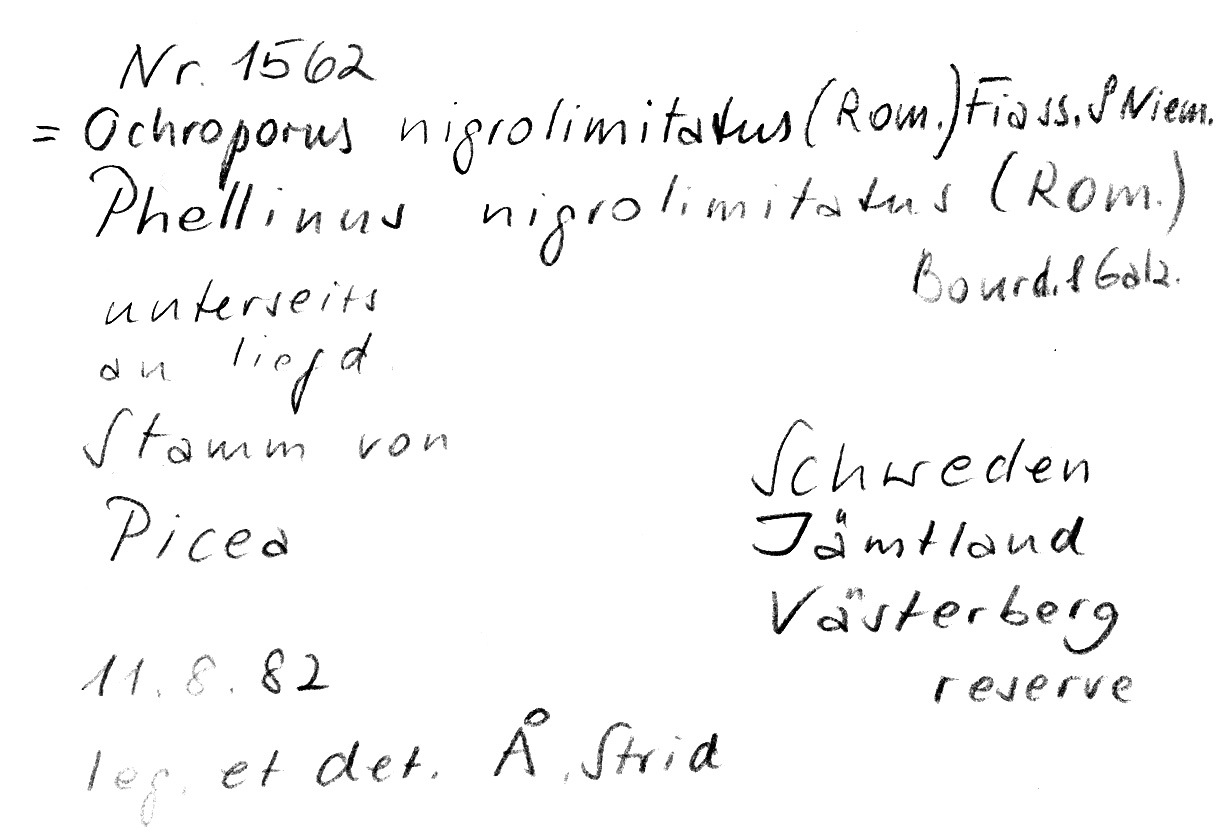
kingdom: Fungi
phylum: Basidiomycota
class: Agaricomycetes
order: Hymenochaetales
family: Hymenochaetaceae
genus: Phellopilus
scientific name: Phellopilus nigrolimitatus
